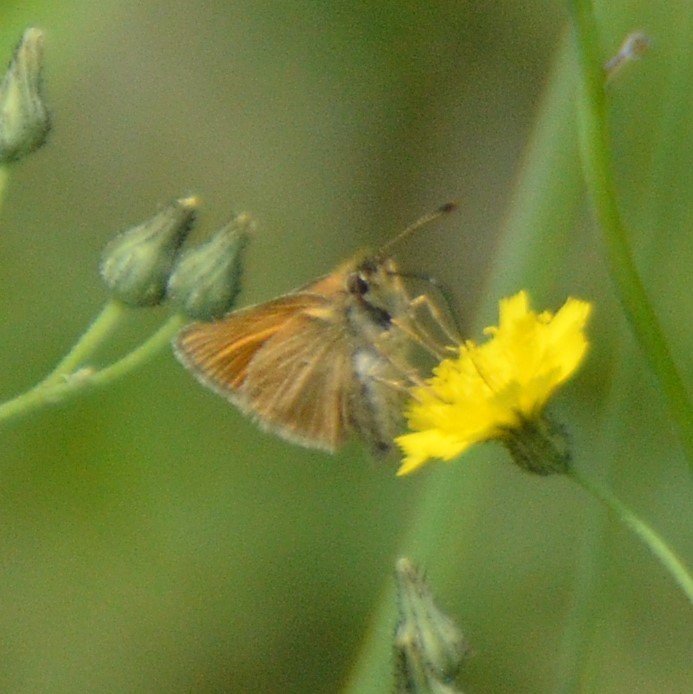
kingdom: Animalia
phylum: Arthropoda
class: Insecta
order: Lepidoptera
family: Hesperiidae
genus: Thymelicus
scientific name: Thymelicus lineola
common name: European Skipper
